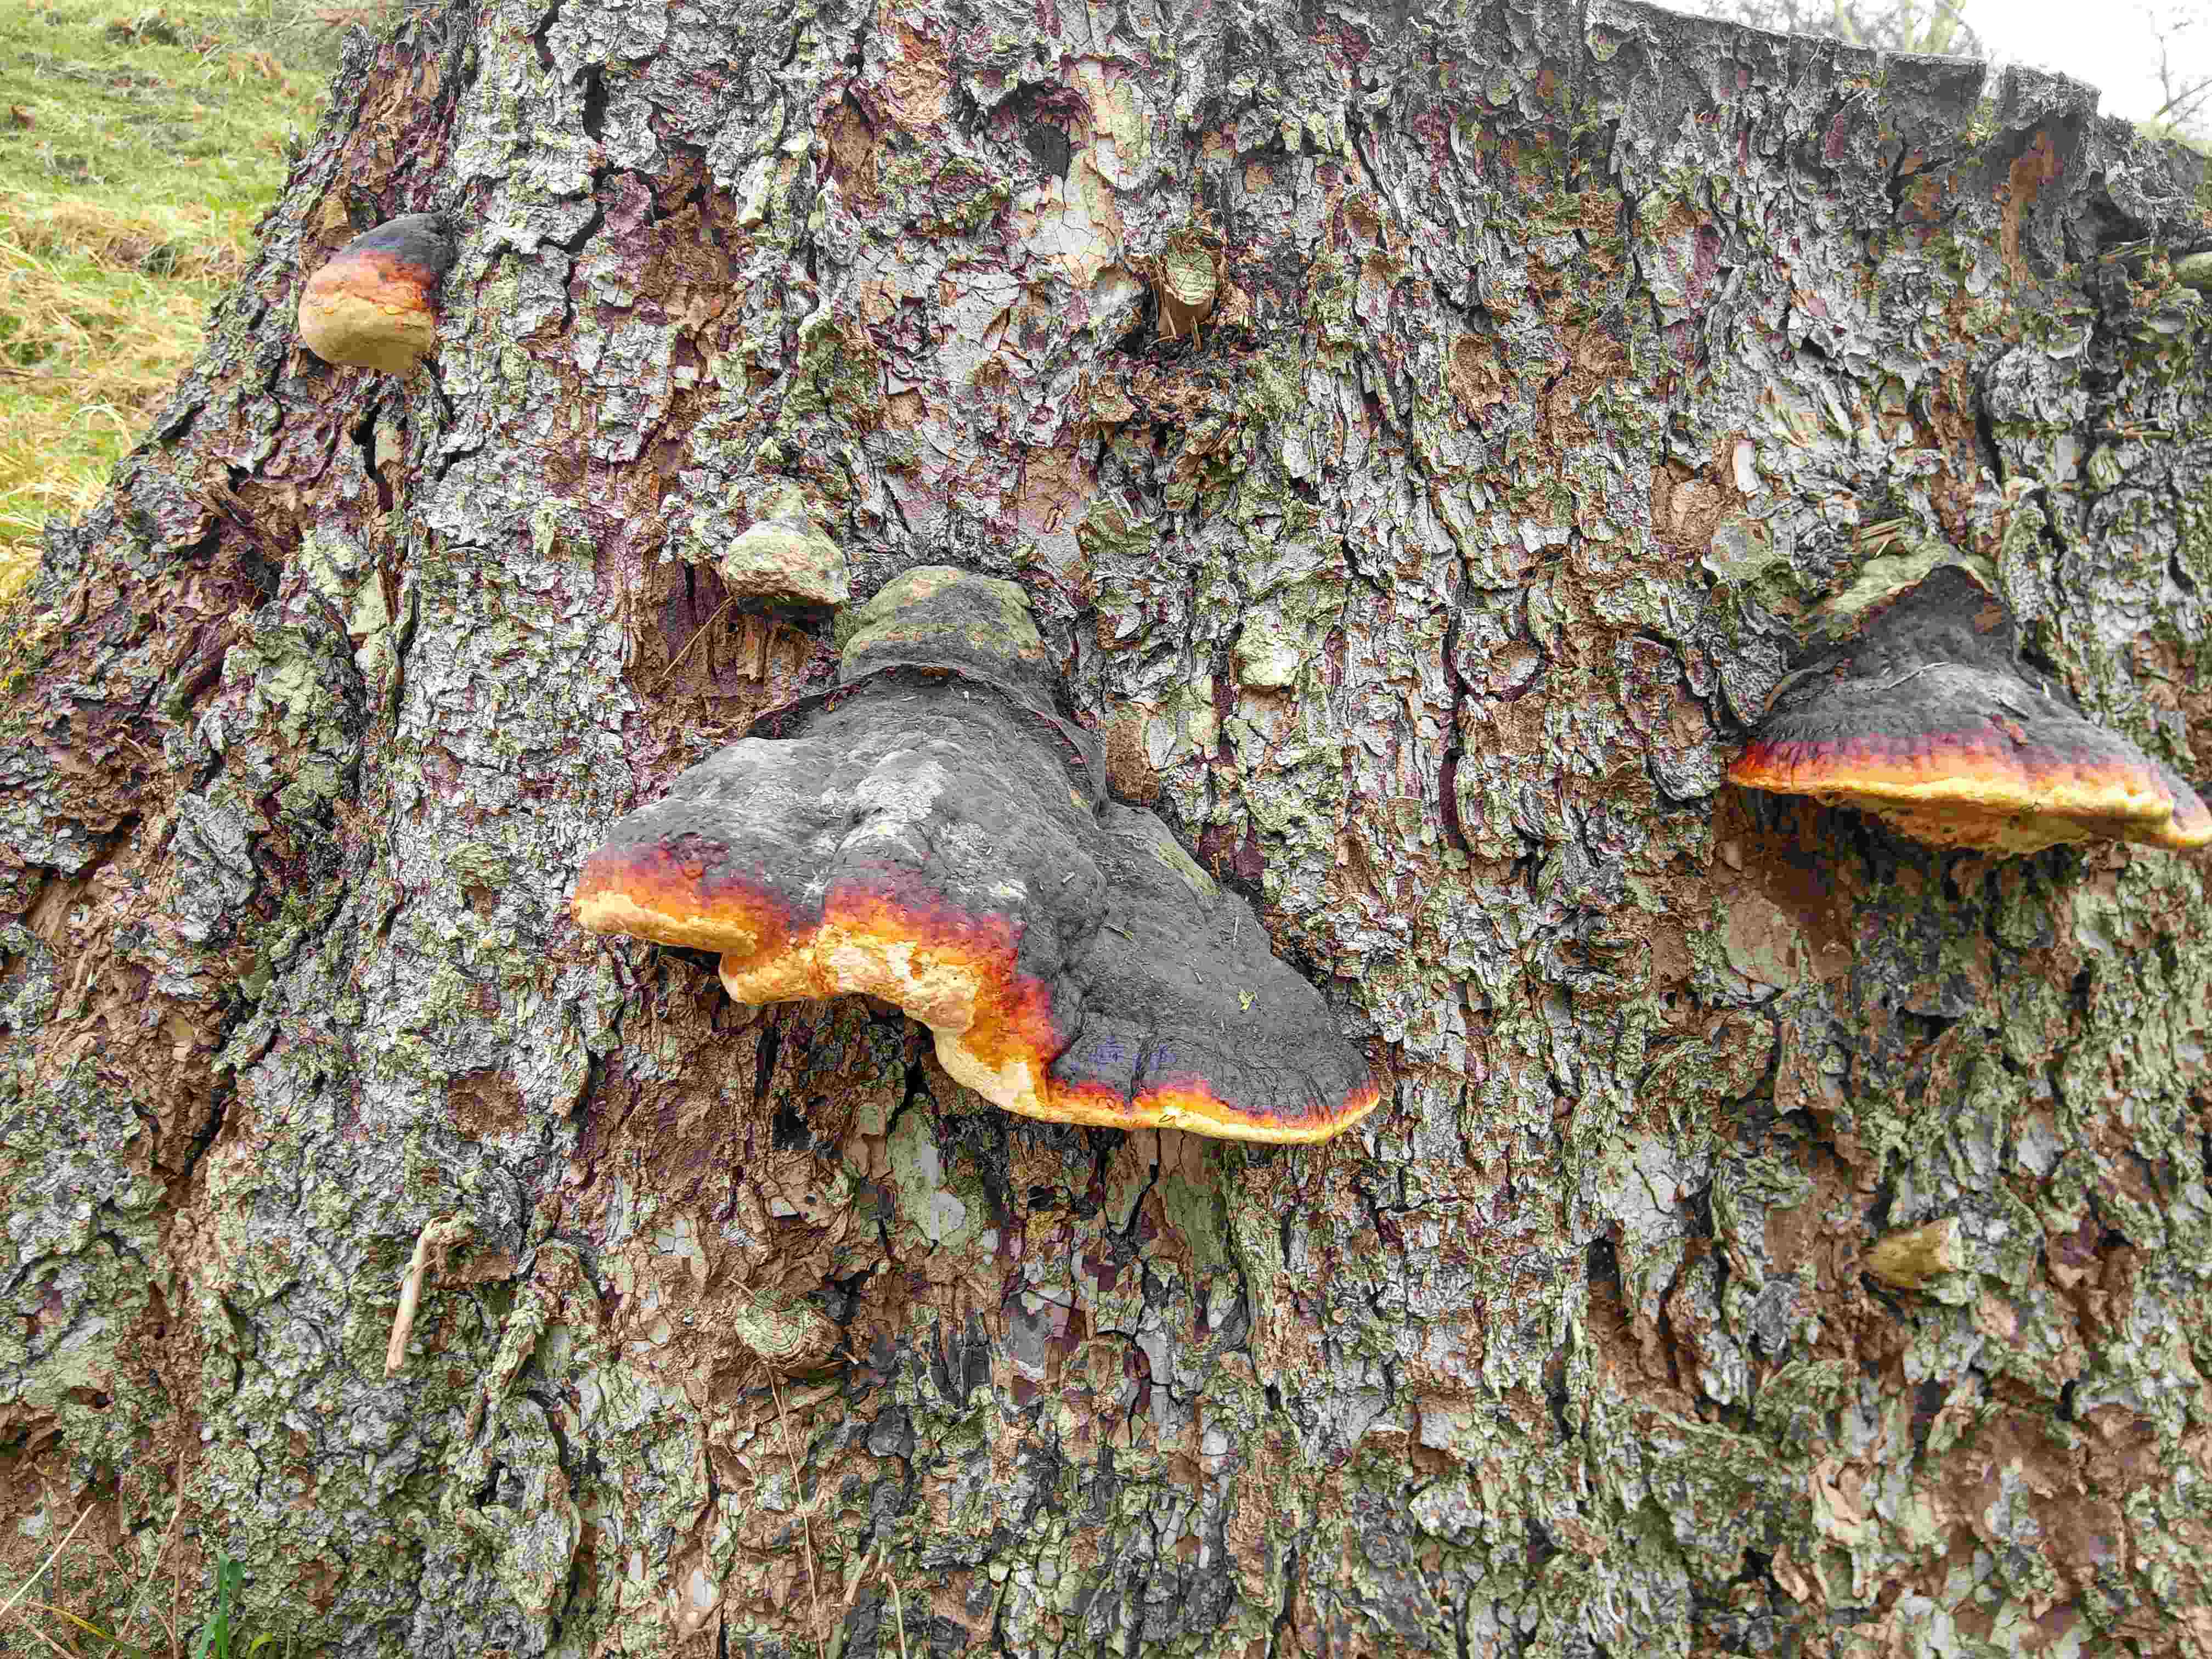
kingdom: Fungi
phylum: Basidiomycota
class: Agaricomycetes
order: Polyporales
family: Fomitopsidaceae
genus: Fomitopsis
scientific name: Fomitopsis pinicola
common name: randbæltet hovporesvamp
